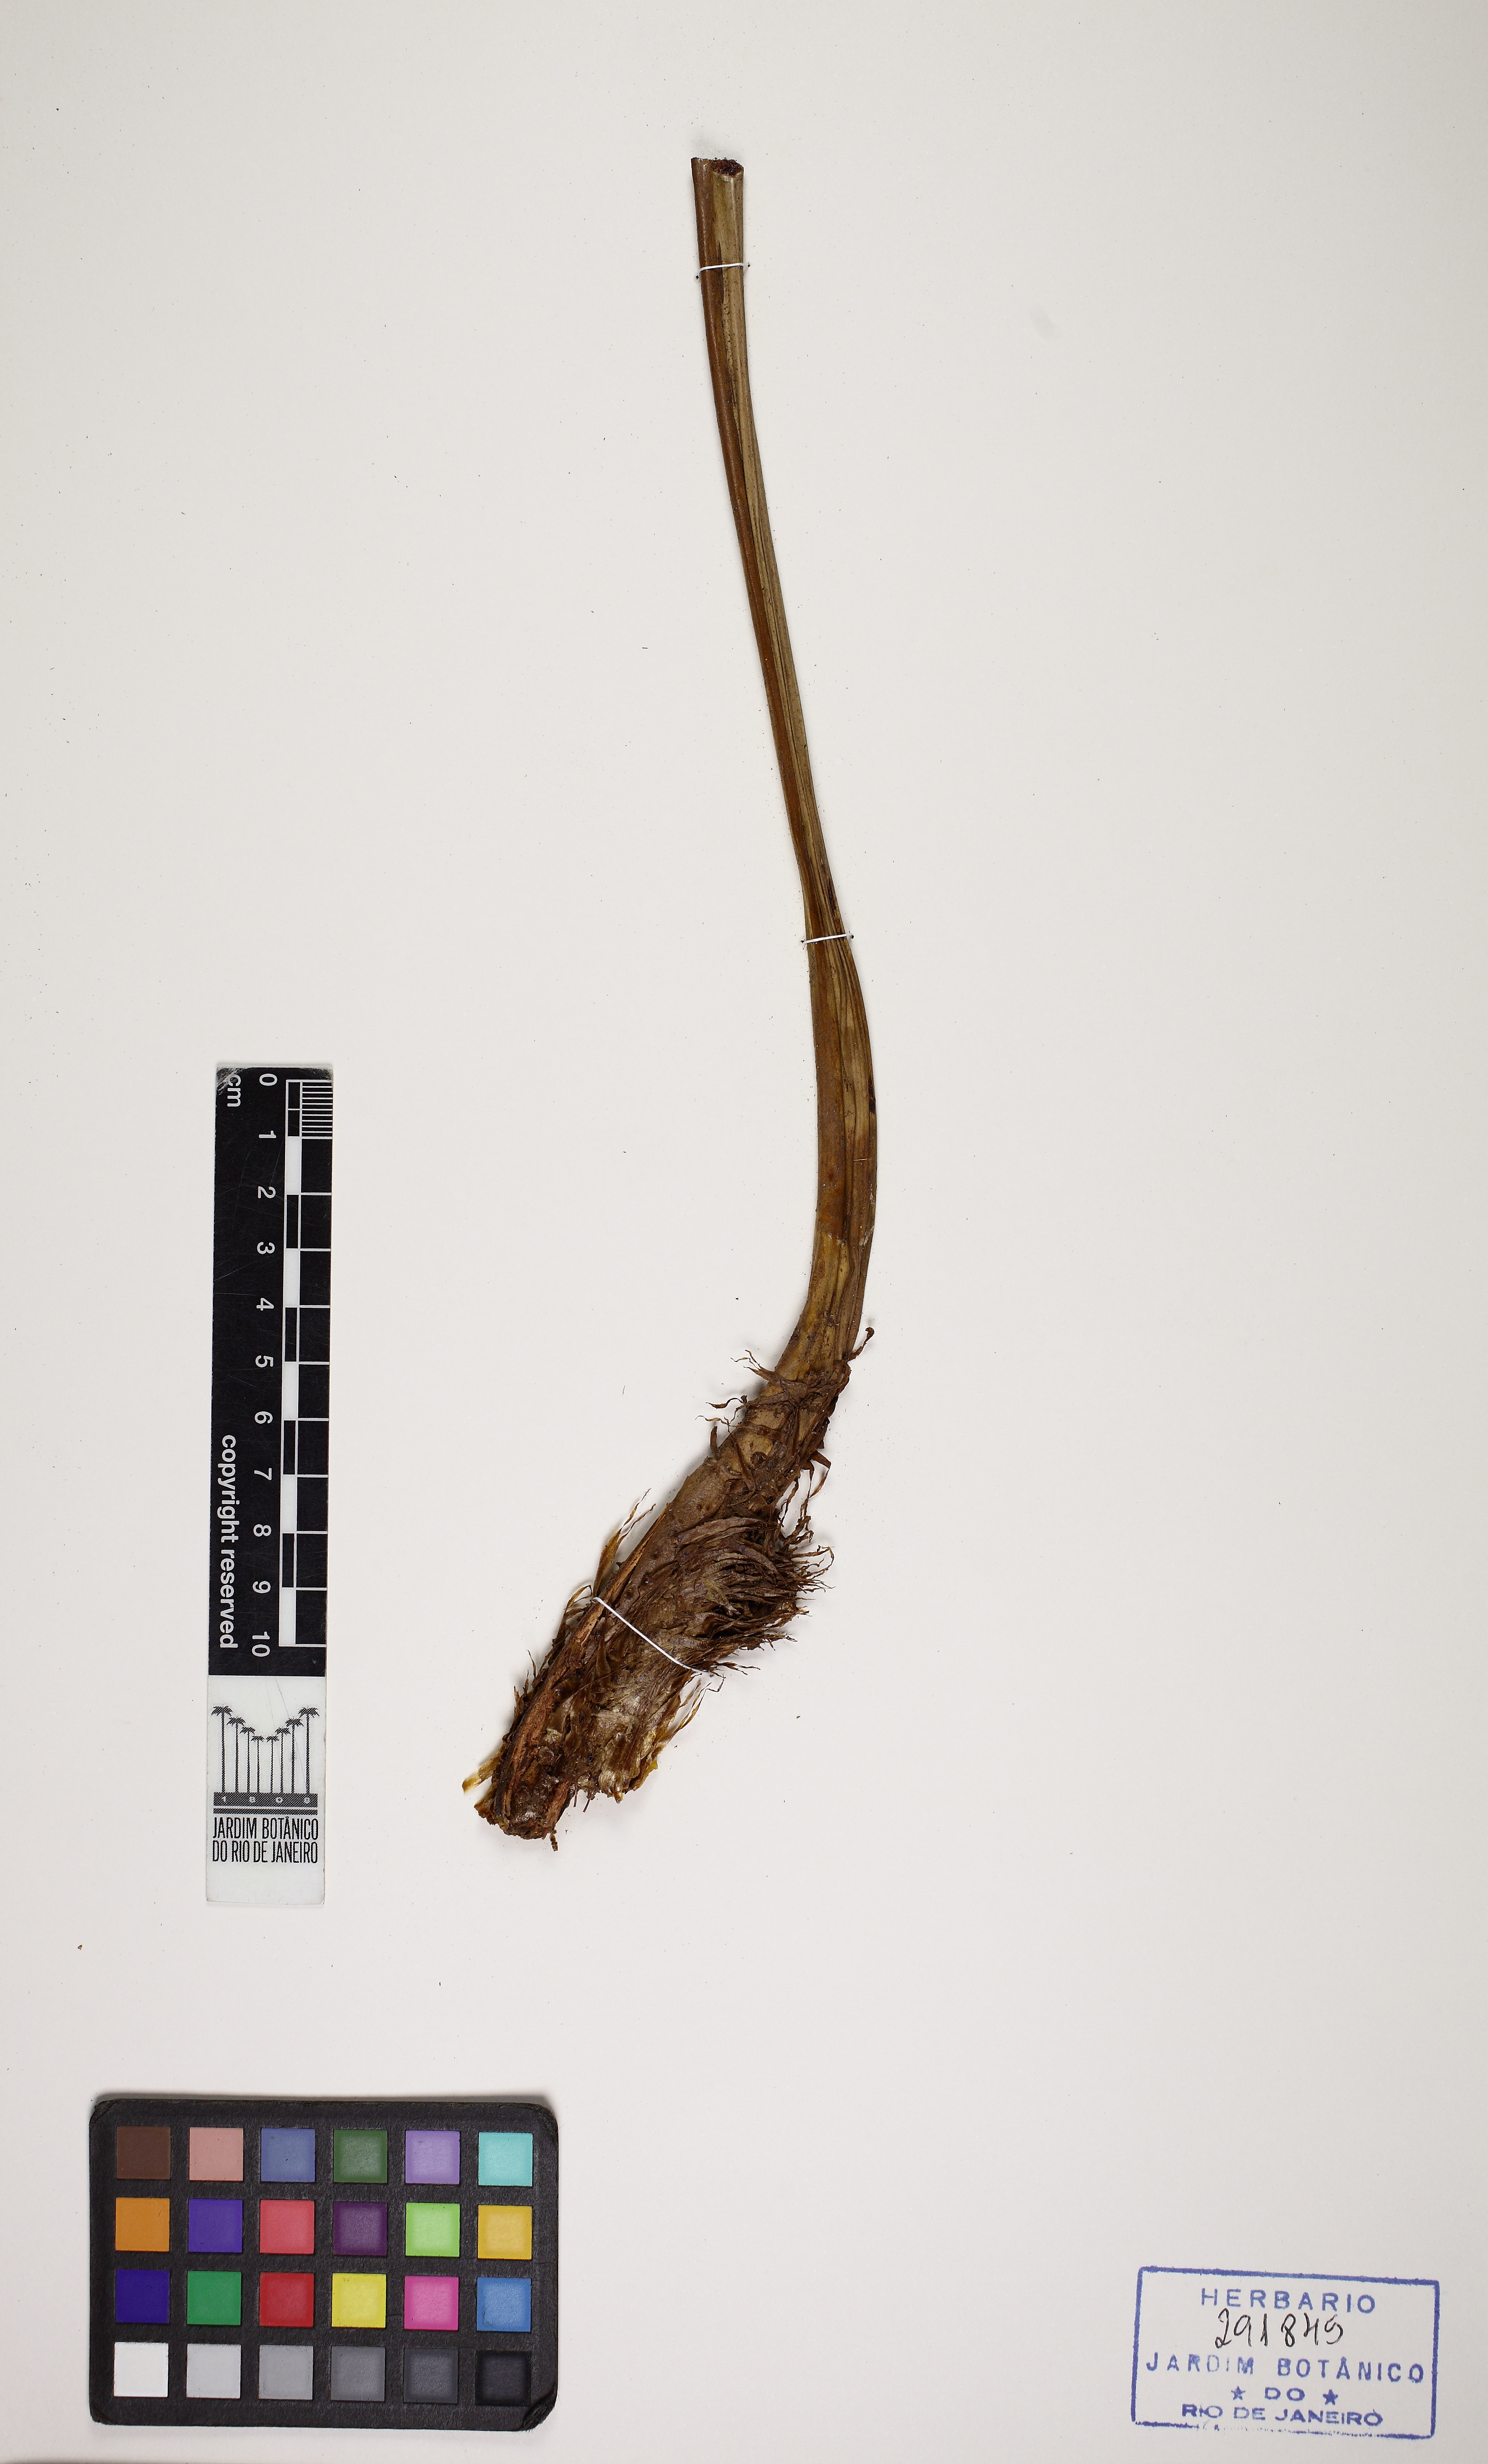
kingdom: Plantae
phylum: Tracheophyta
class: Polypodiopsida
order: Cyatheales
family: Cyatheaceae
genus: Cyathea
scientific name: Cyathea phalerata
